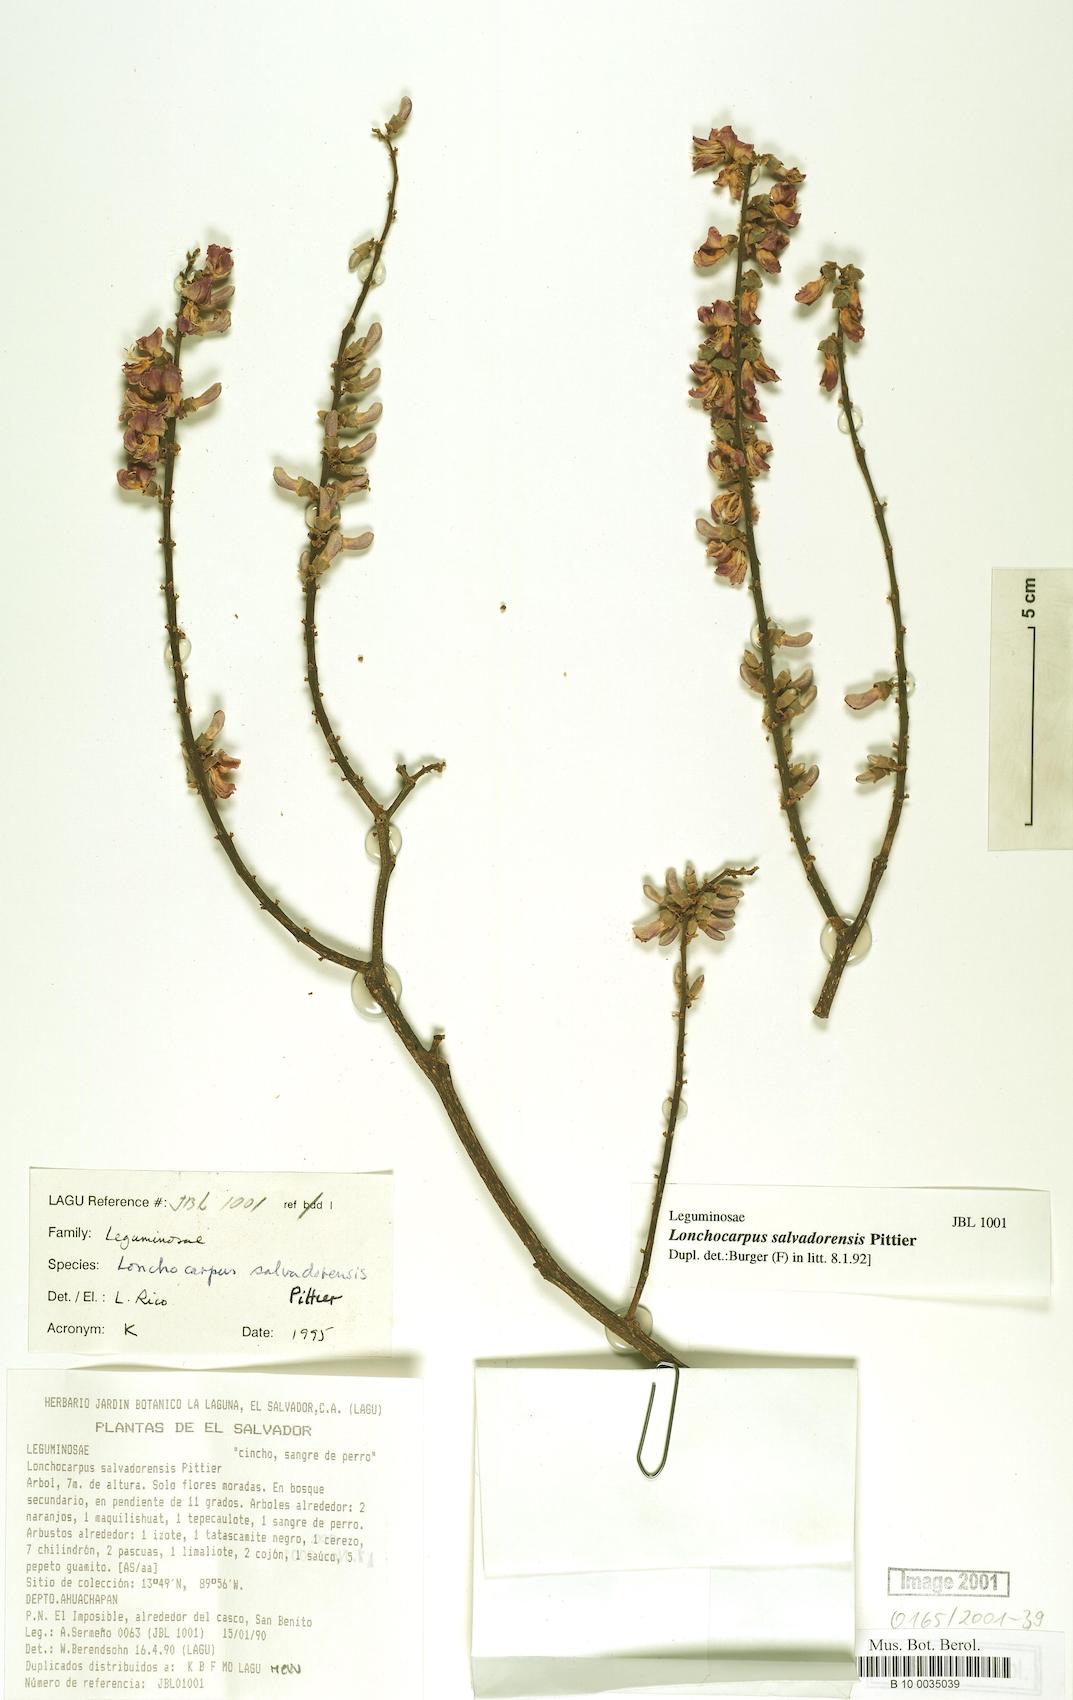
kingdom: Plantae
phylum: Tracheophyta
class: Magnoliopsida
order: Fabales
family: Fabaceae
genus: Lonchocarpus
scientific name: Lonchocarpus salvadorensis
